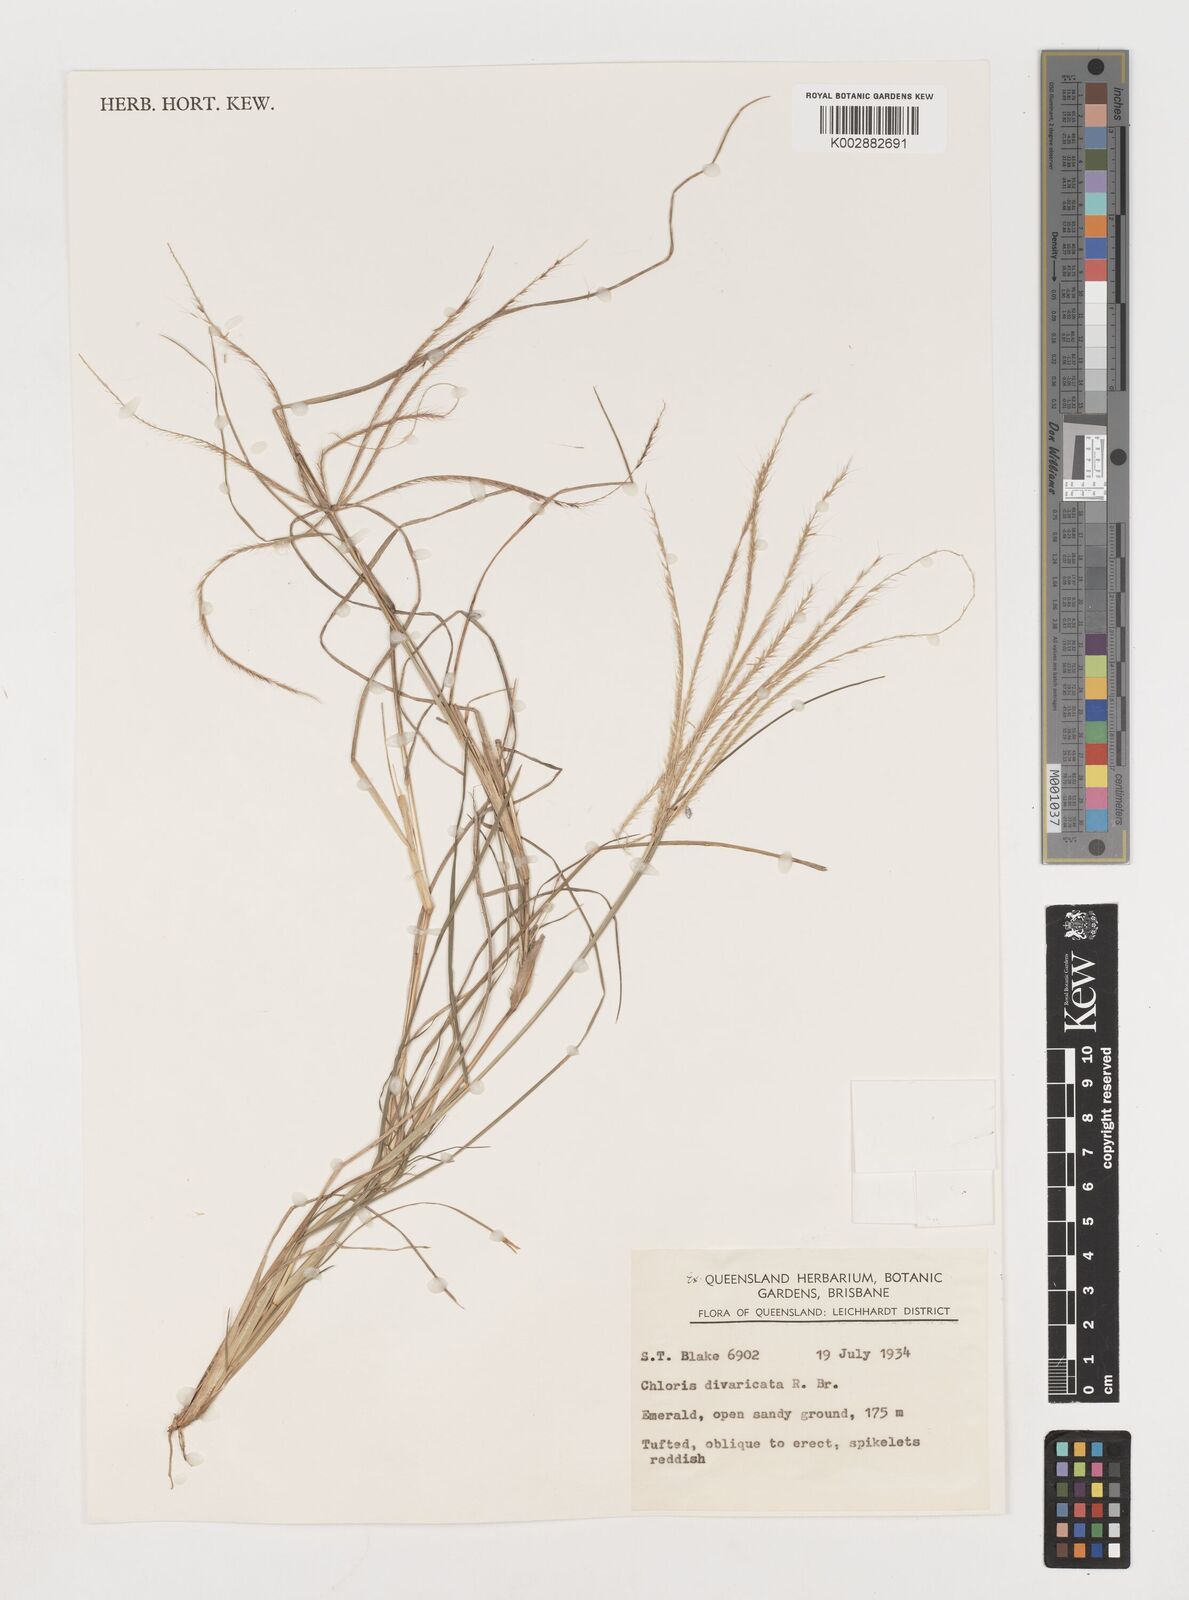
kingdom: Plantae
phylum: Tracheophyta
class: Liliopsida
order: Poales
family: Poaceae
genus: Chloris
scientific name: Chloris divaricata
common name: Spreading windmill grass
